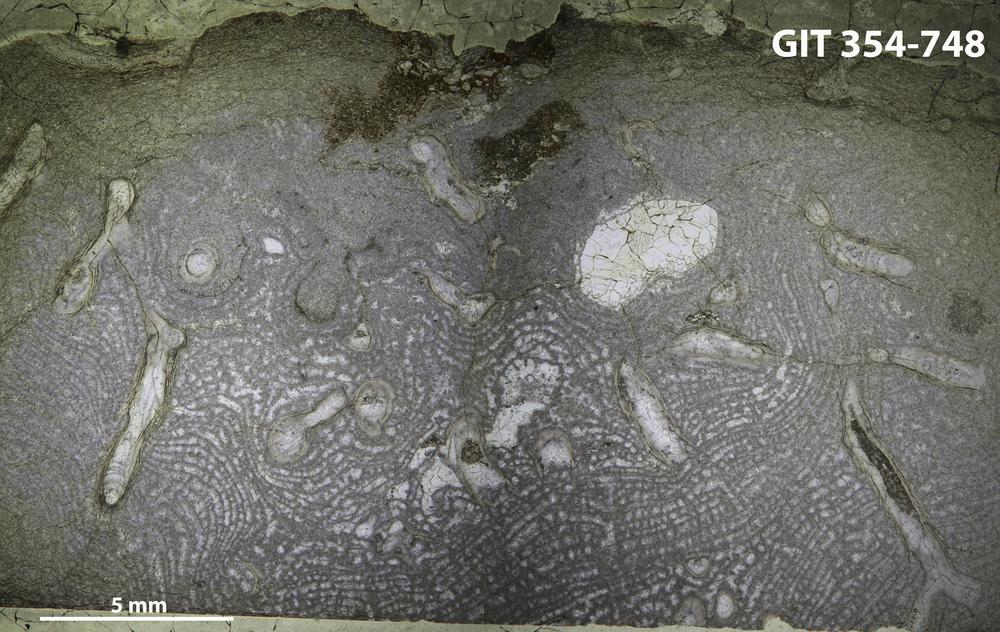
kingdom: Animalia
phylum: Porifera
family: Gerronostromatidae
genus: Petridiostroma
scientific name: Petridiostroma
